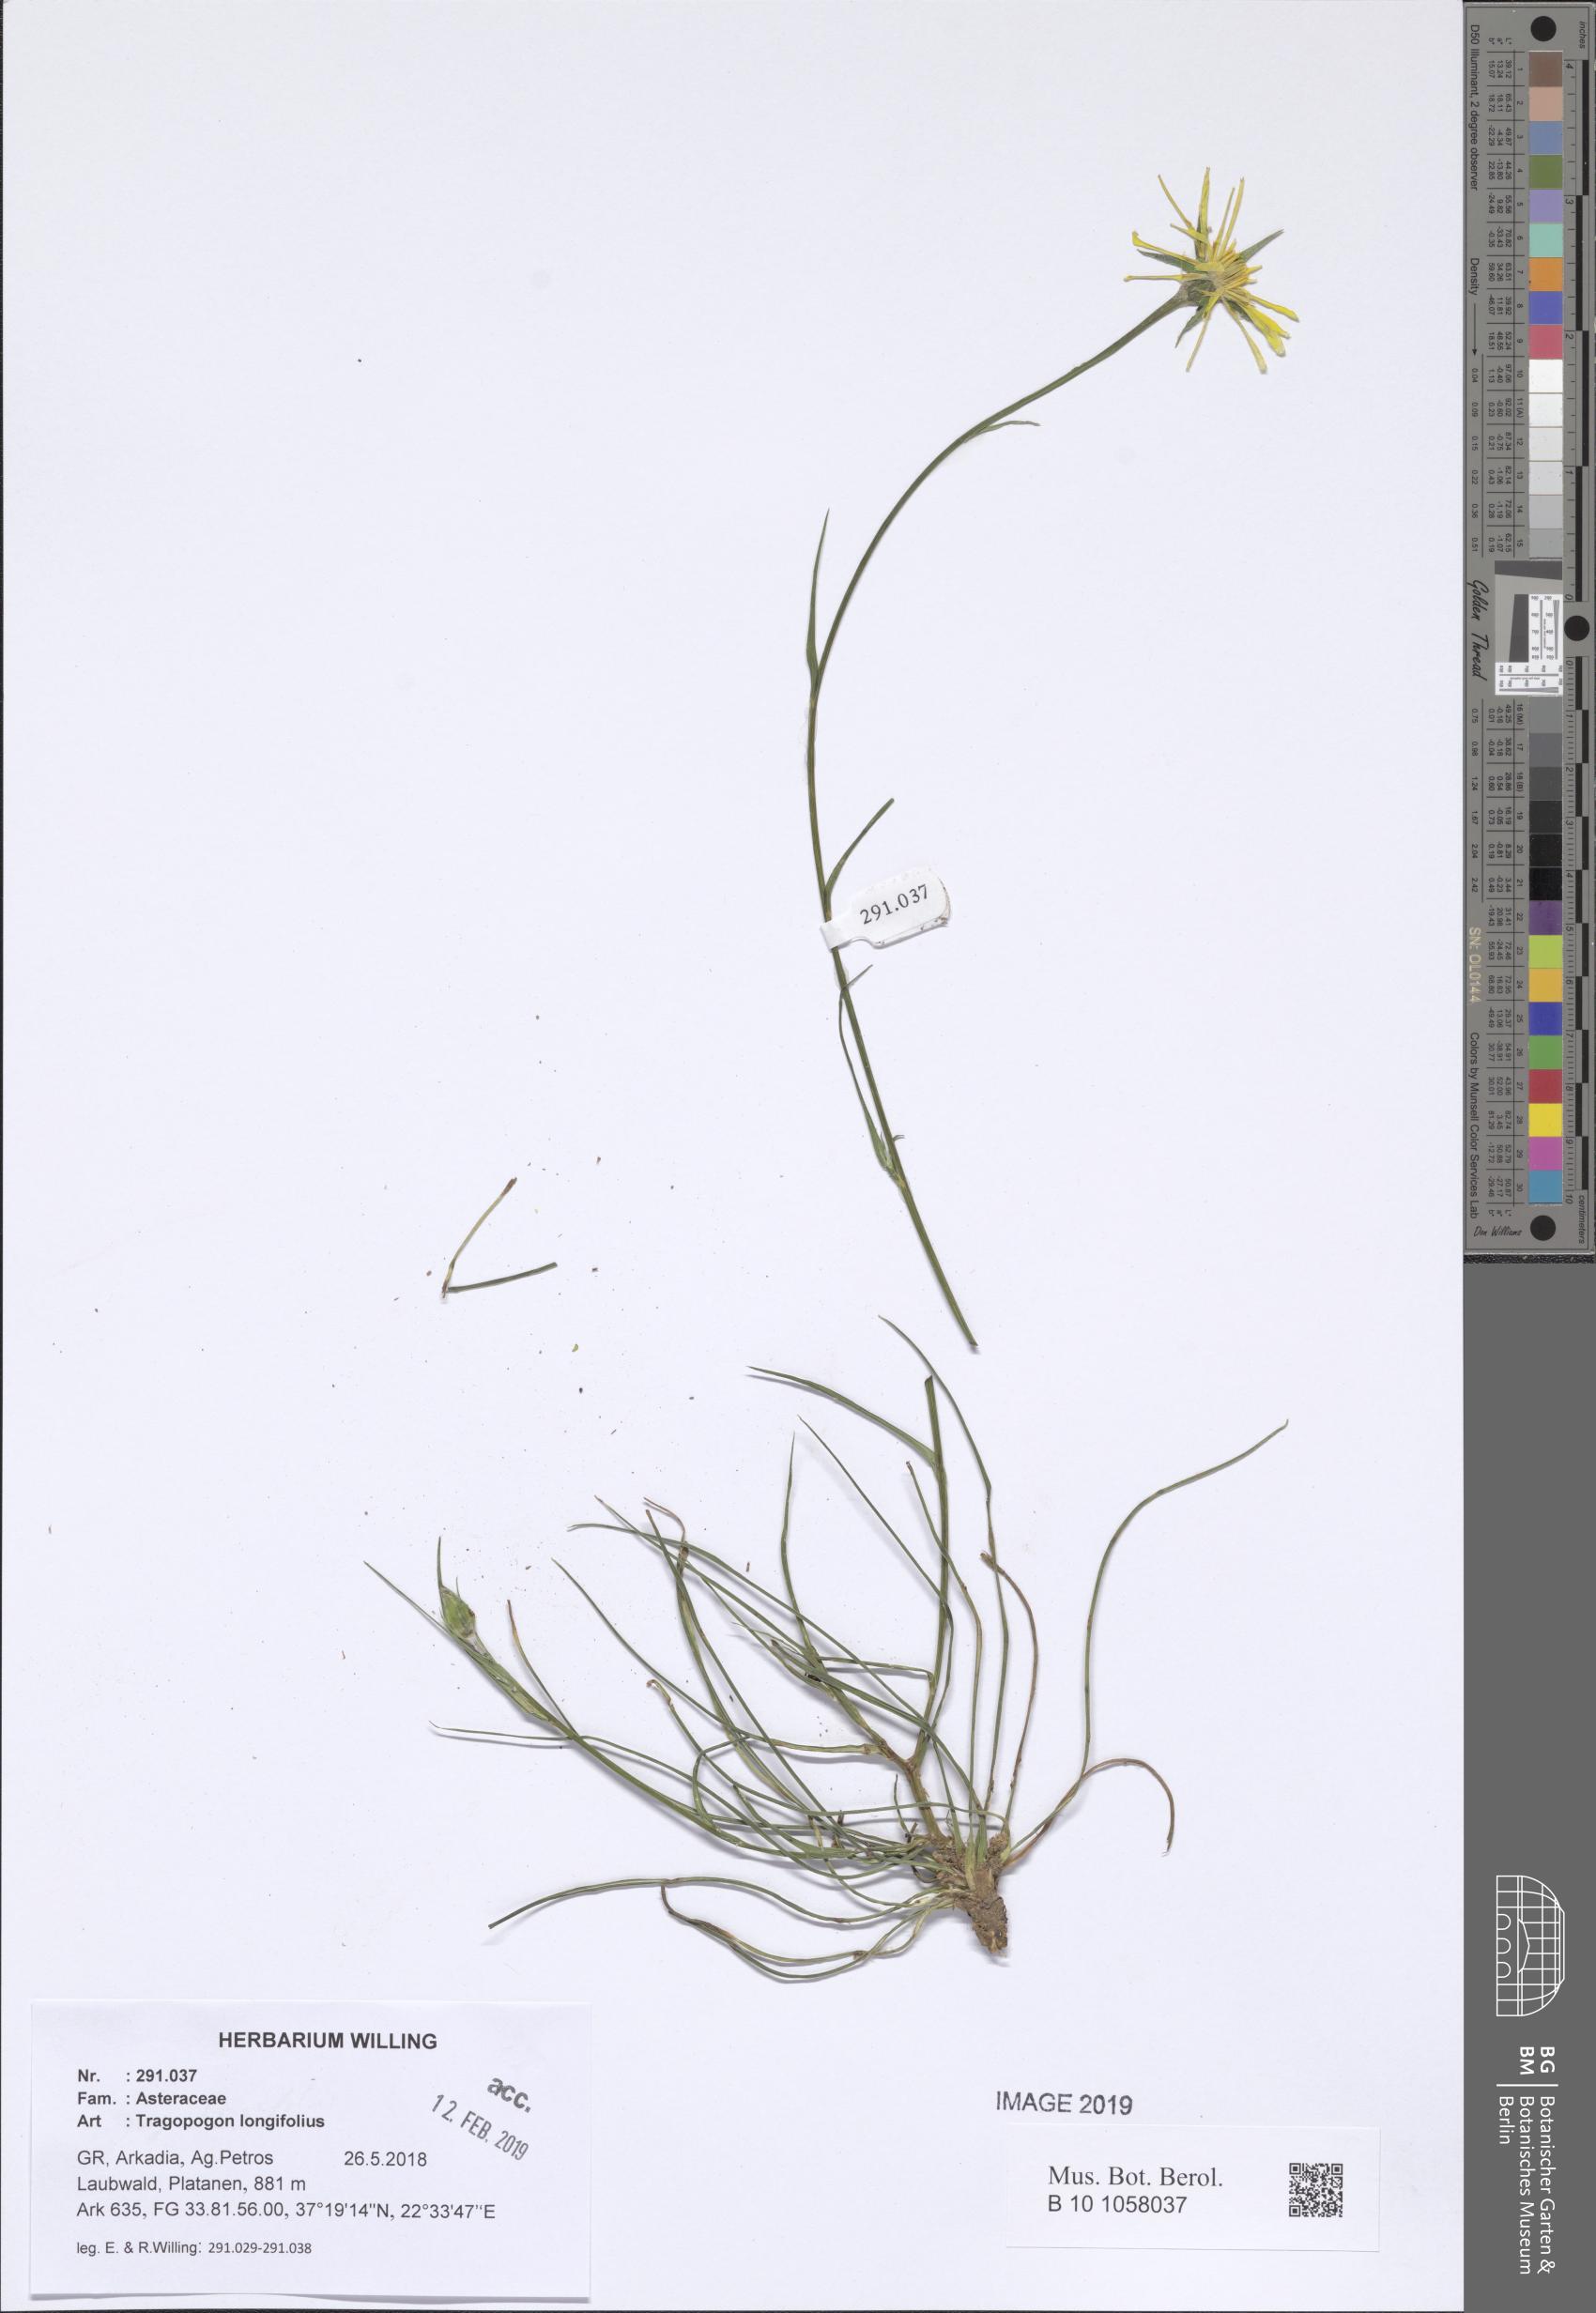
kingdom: Plantae
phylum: Tracheophyta
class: Magnoliopsida
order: Asterales
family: Asteraceae
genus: Tragopogon
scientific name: Tragopogon longifolius
